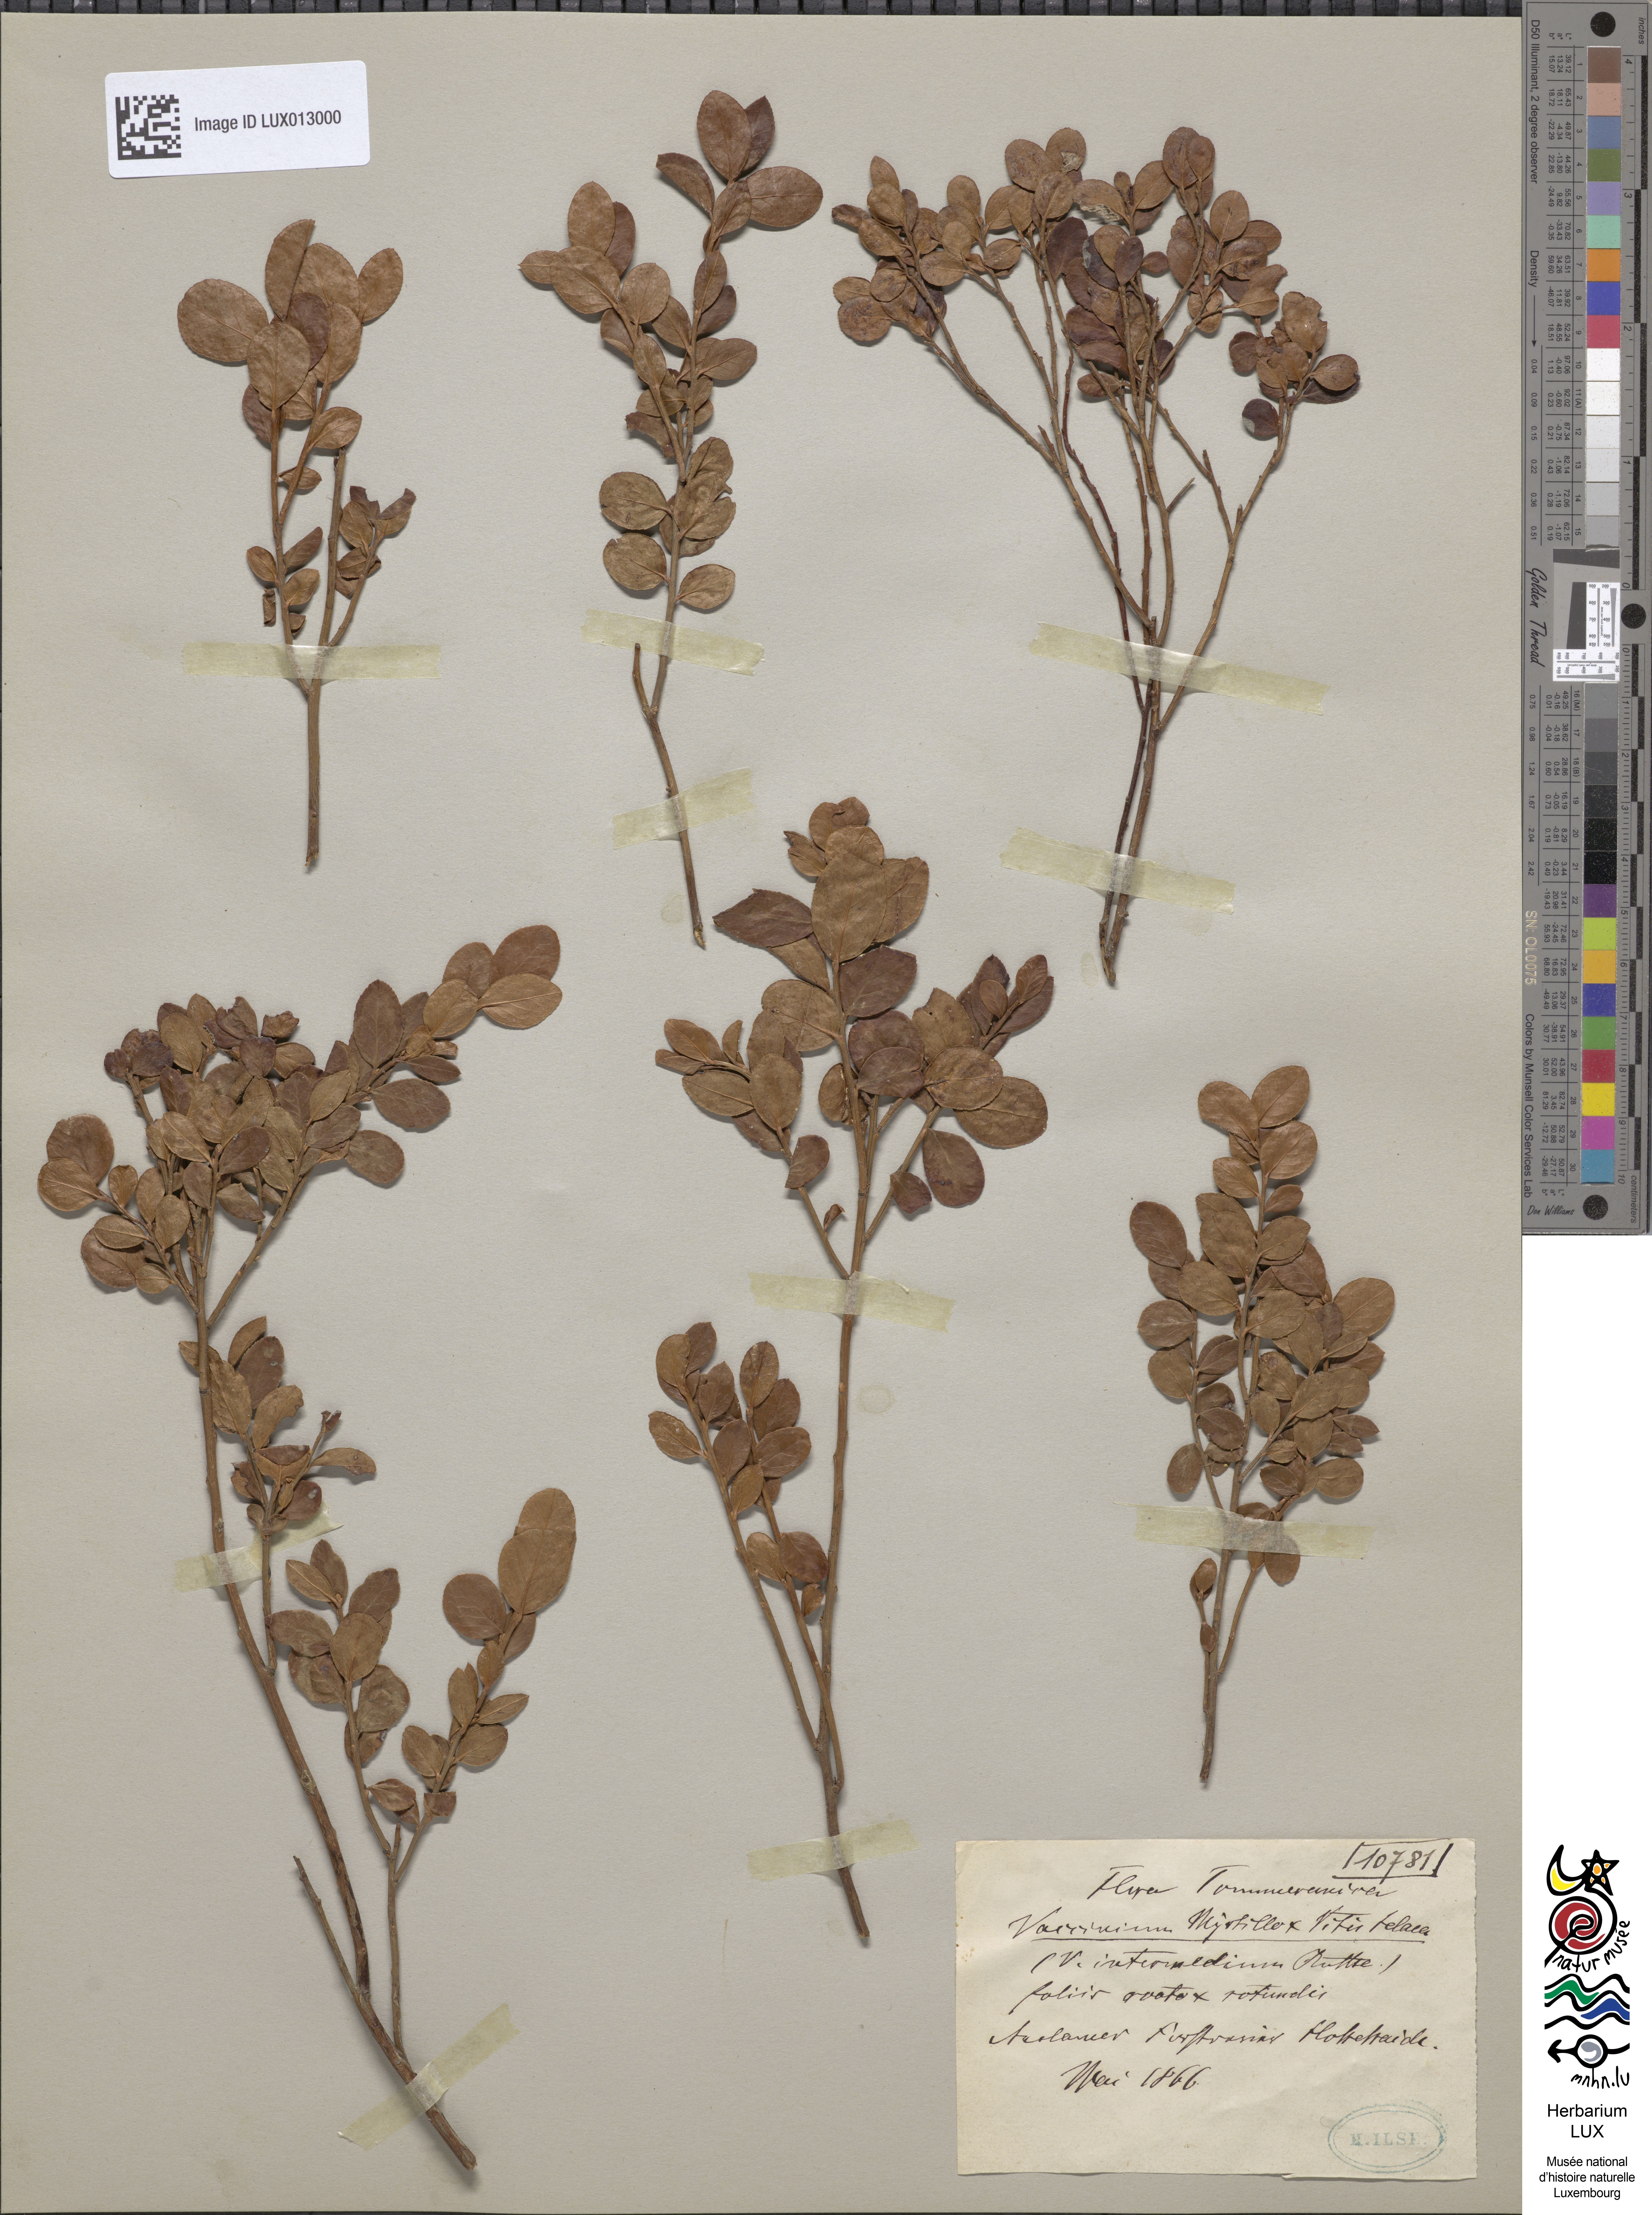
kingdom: Plantae
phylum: Tracheophyta
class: Magnoliopsida
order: Ericales
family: Ericaceae
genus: Vaccinium
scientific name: Vaccinium intermedium
